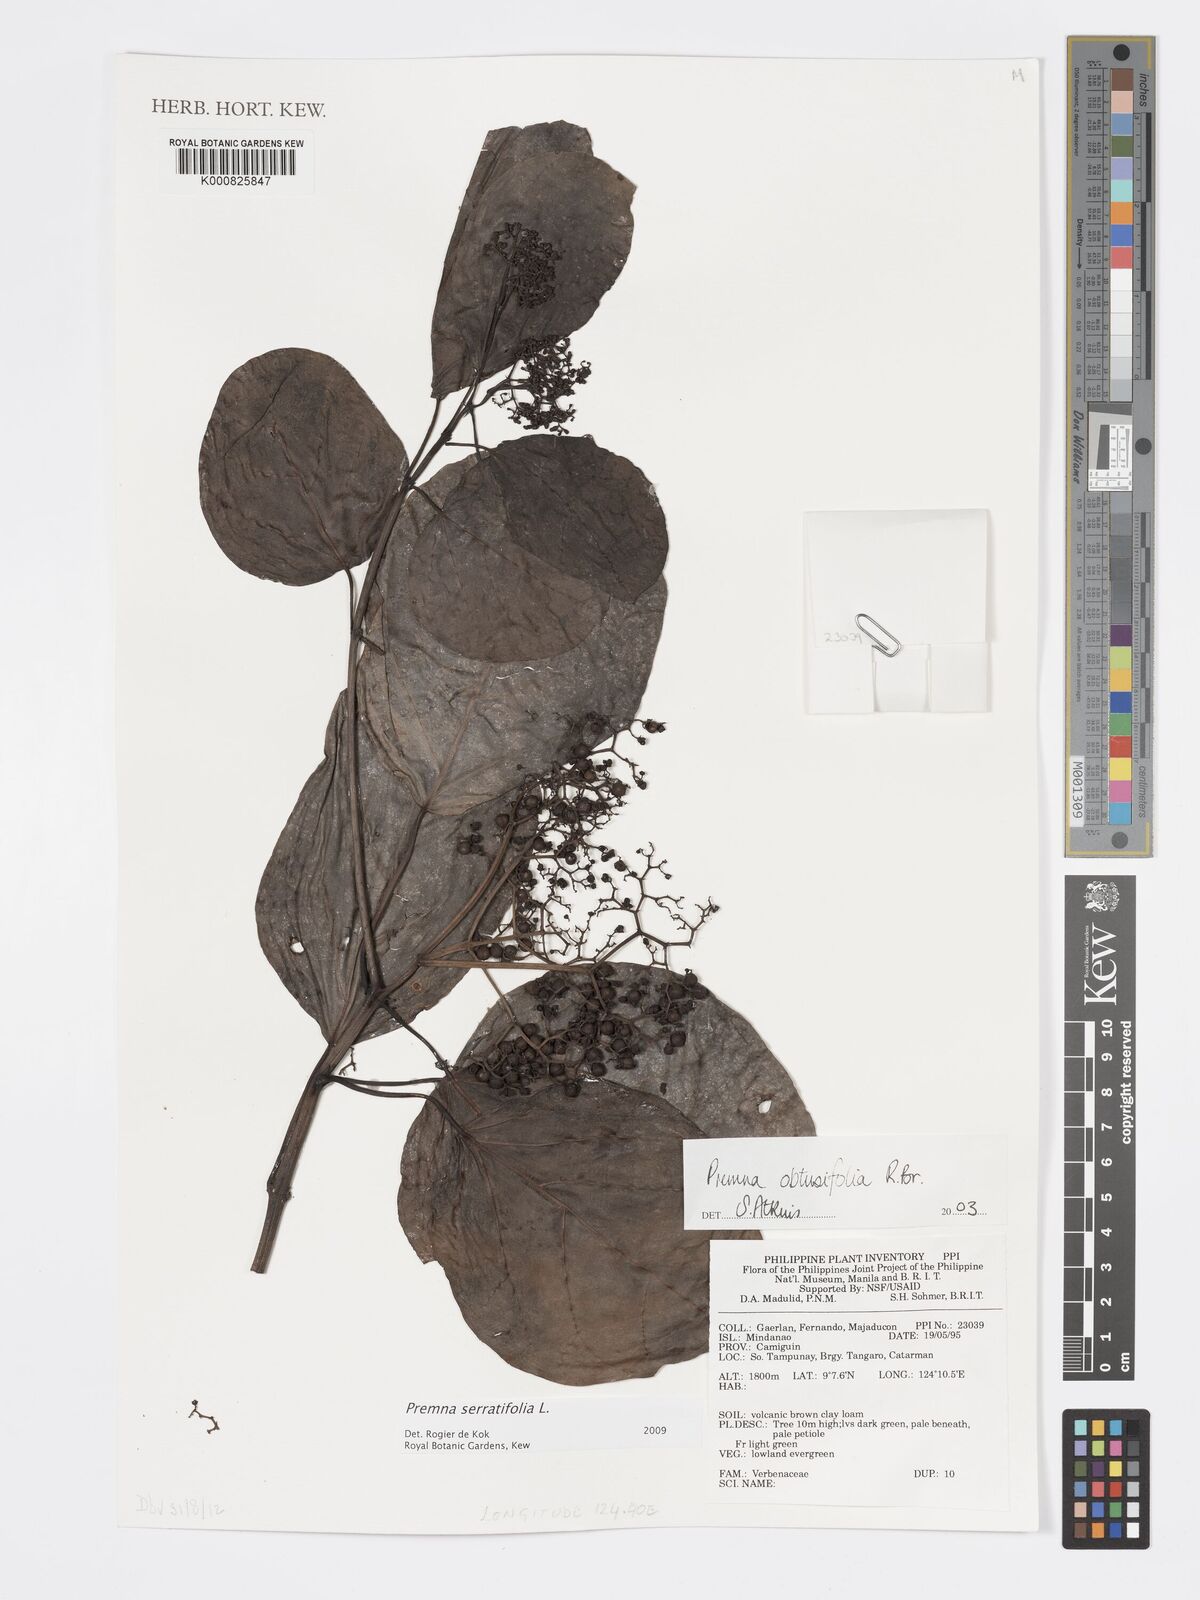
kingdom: Plantae
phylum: Tracheophyta
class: Magnoliopsida
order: Lamiales
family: Lamiaceae
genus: Premna
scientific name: Premna serratifolia
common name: Bastard guelder
